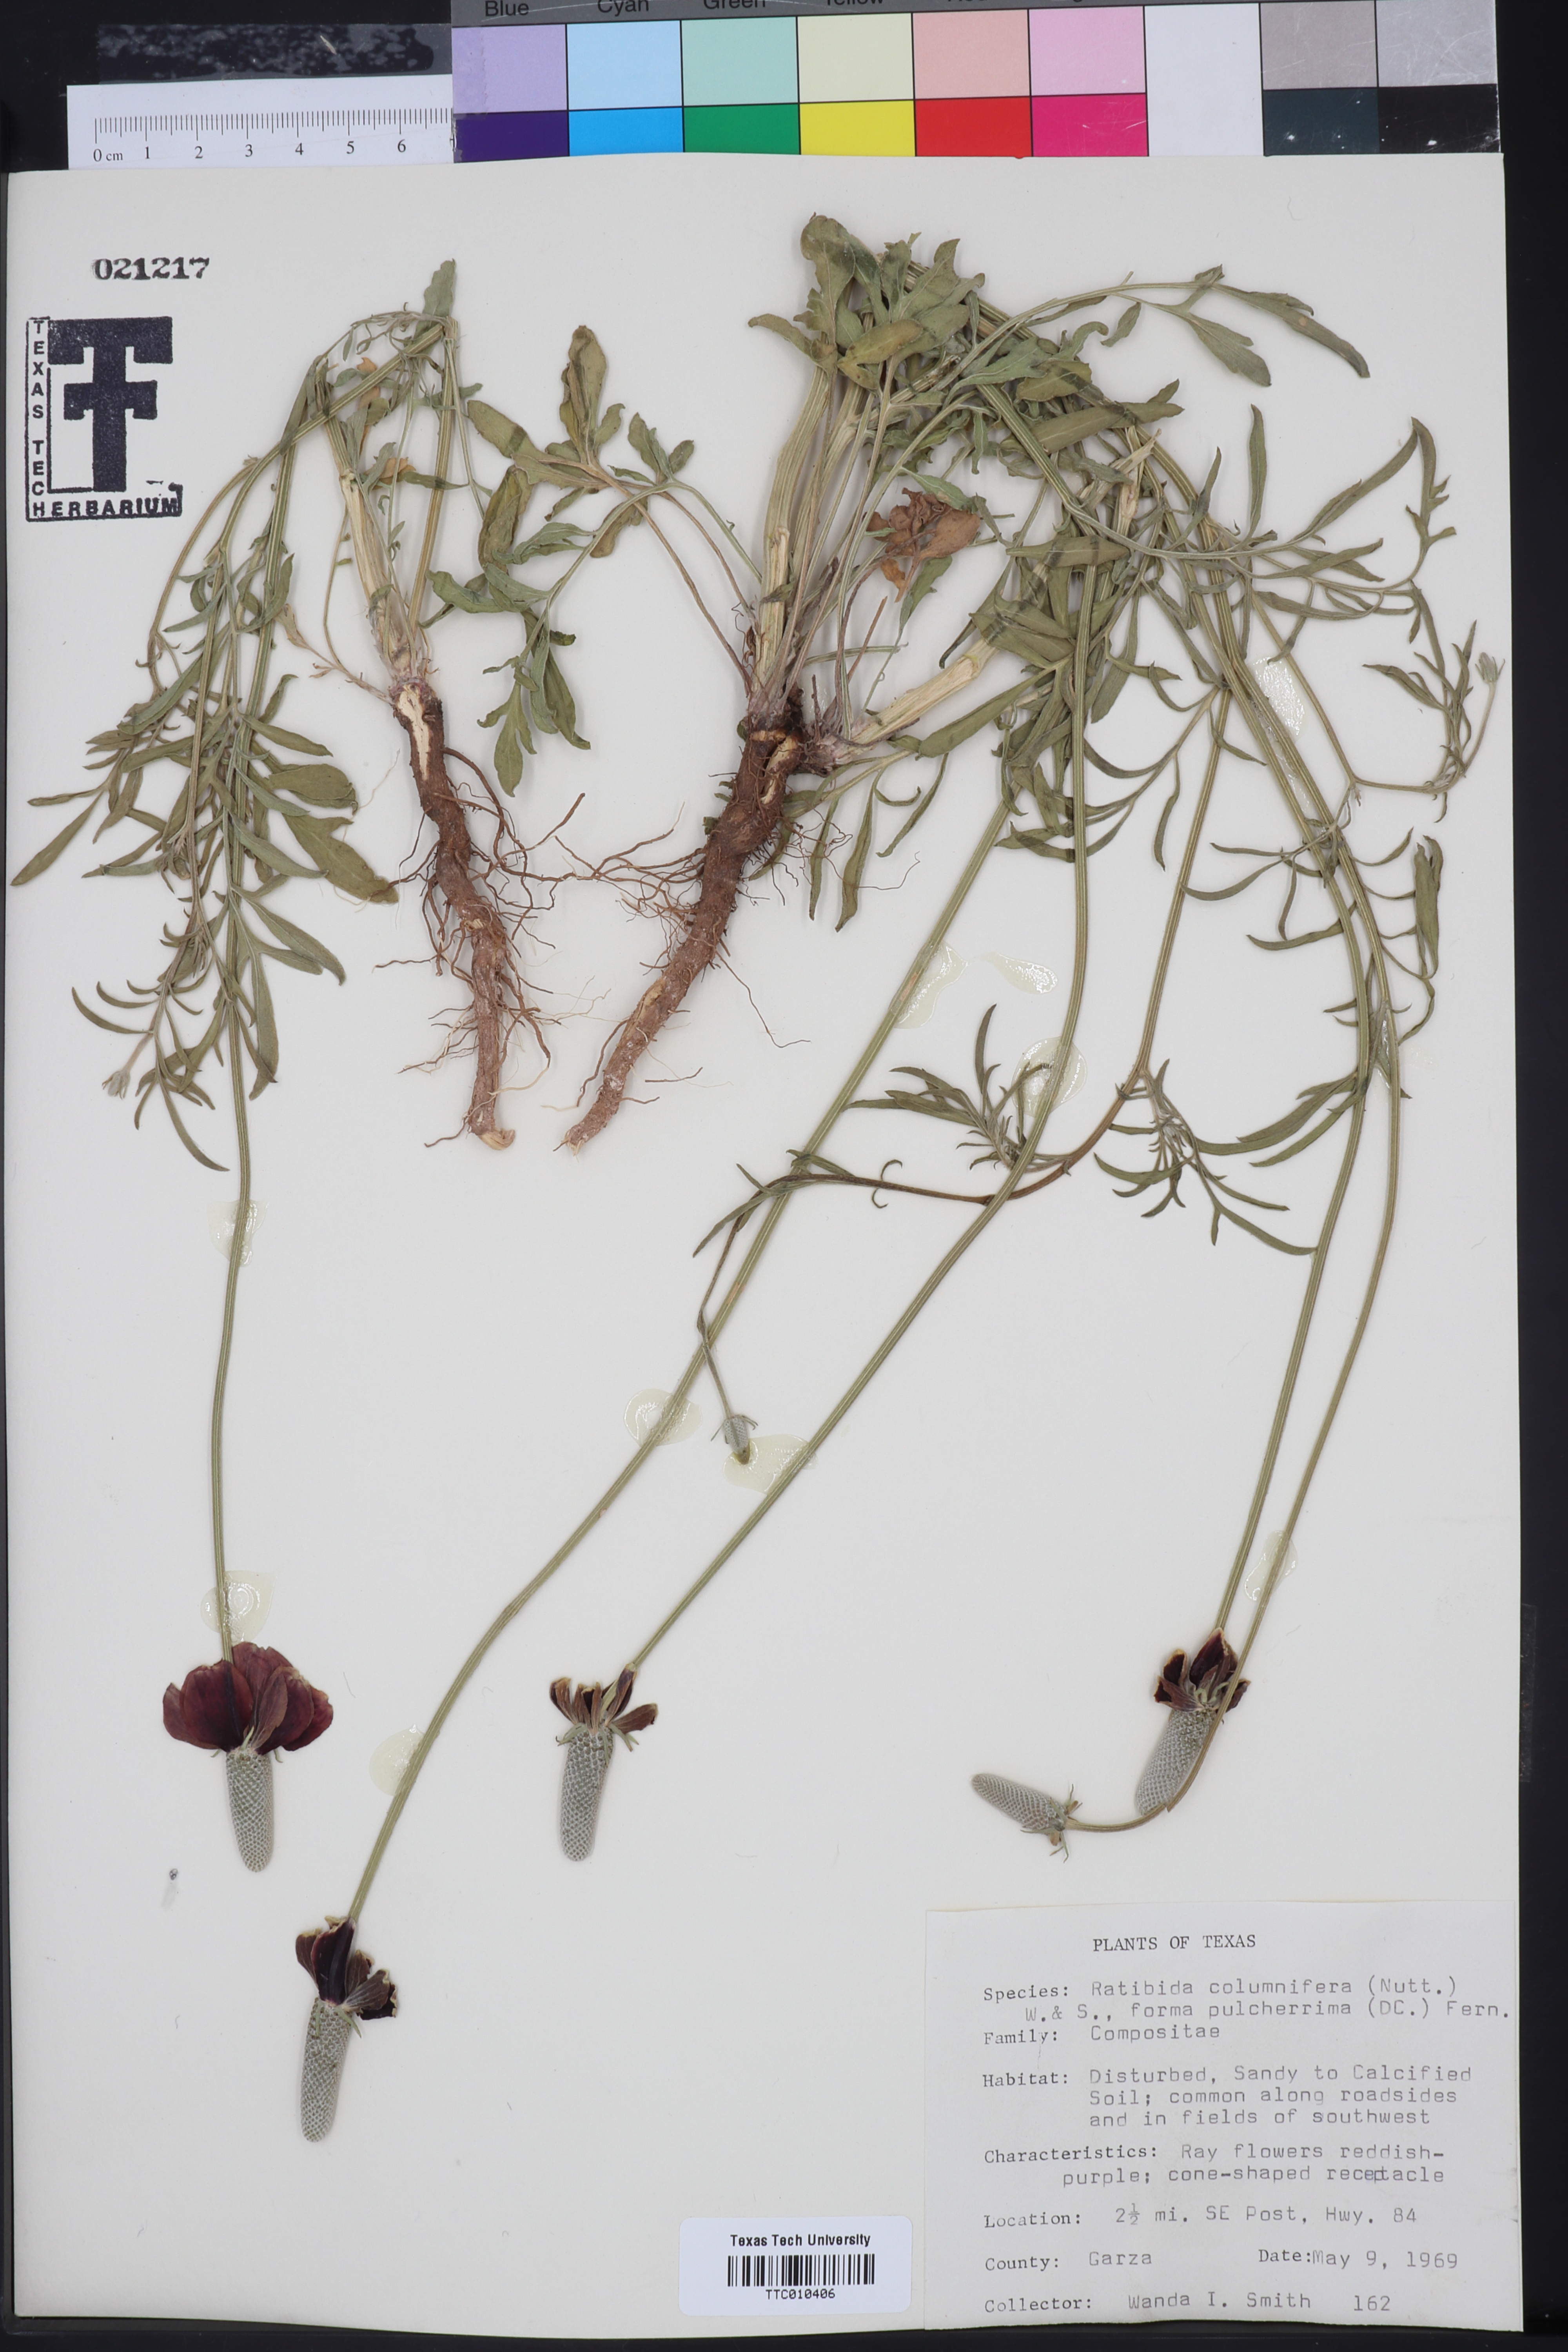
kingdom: Plantae
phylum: Tracheophyta
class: Magnoliopsida
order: Asterales
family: Asteraceae
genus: Ratibida
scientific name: Ratibida columnifera
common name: Prairie coneflower
